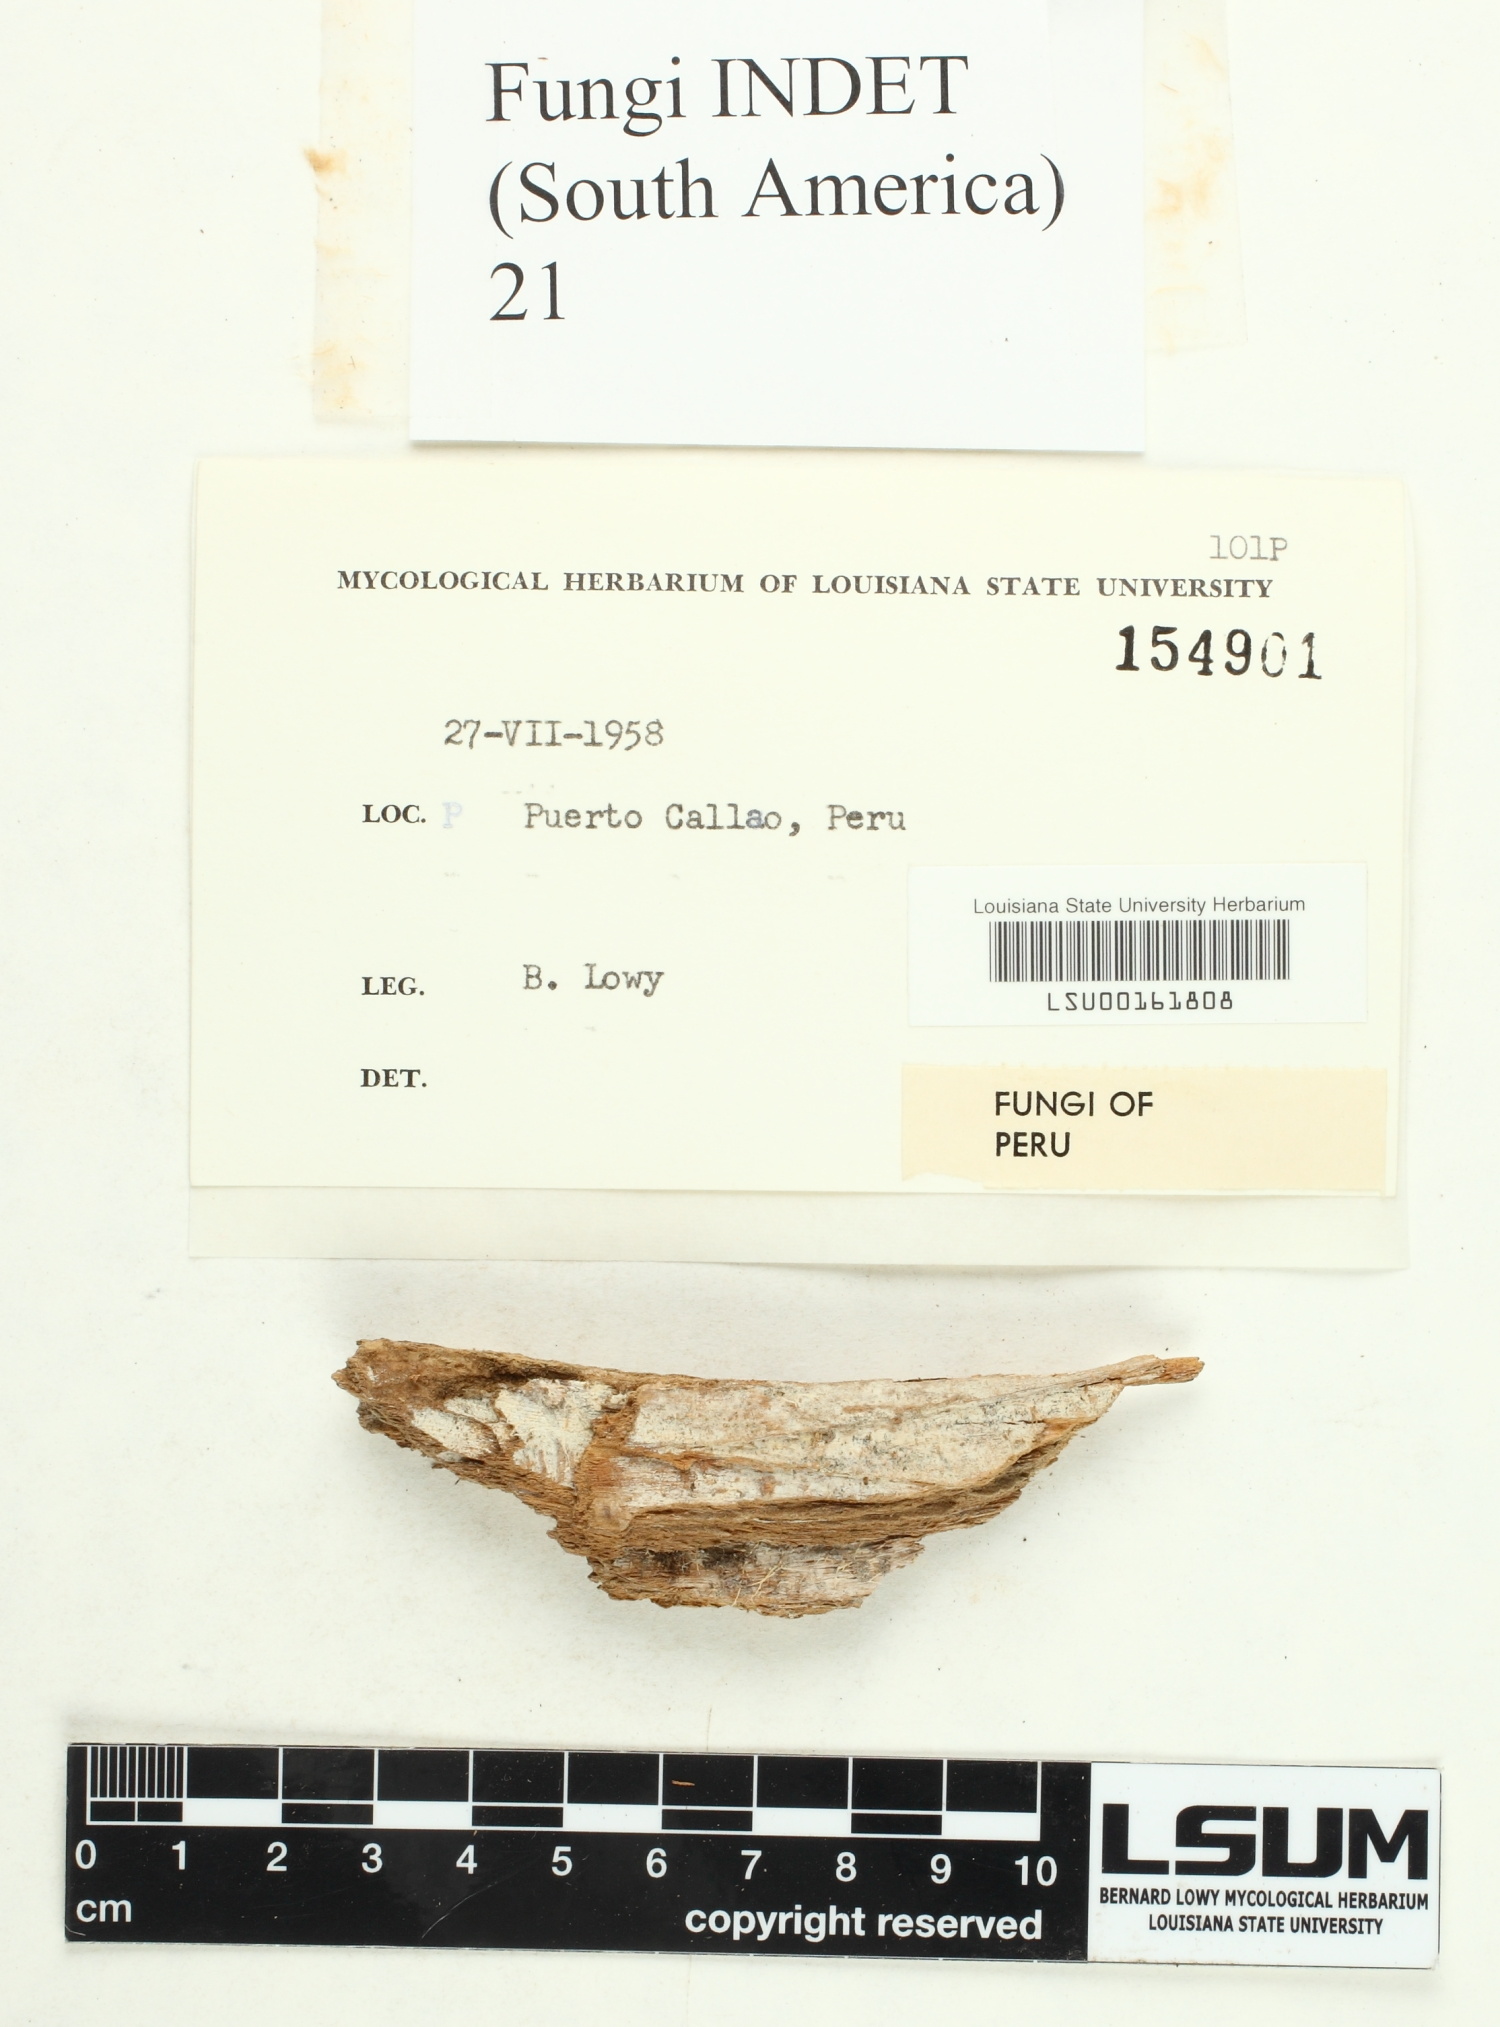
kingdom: Fungi
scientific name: Fungi
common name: Fungi
